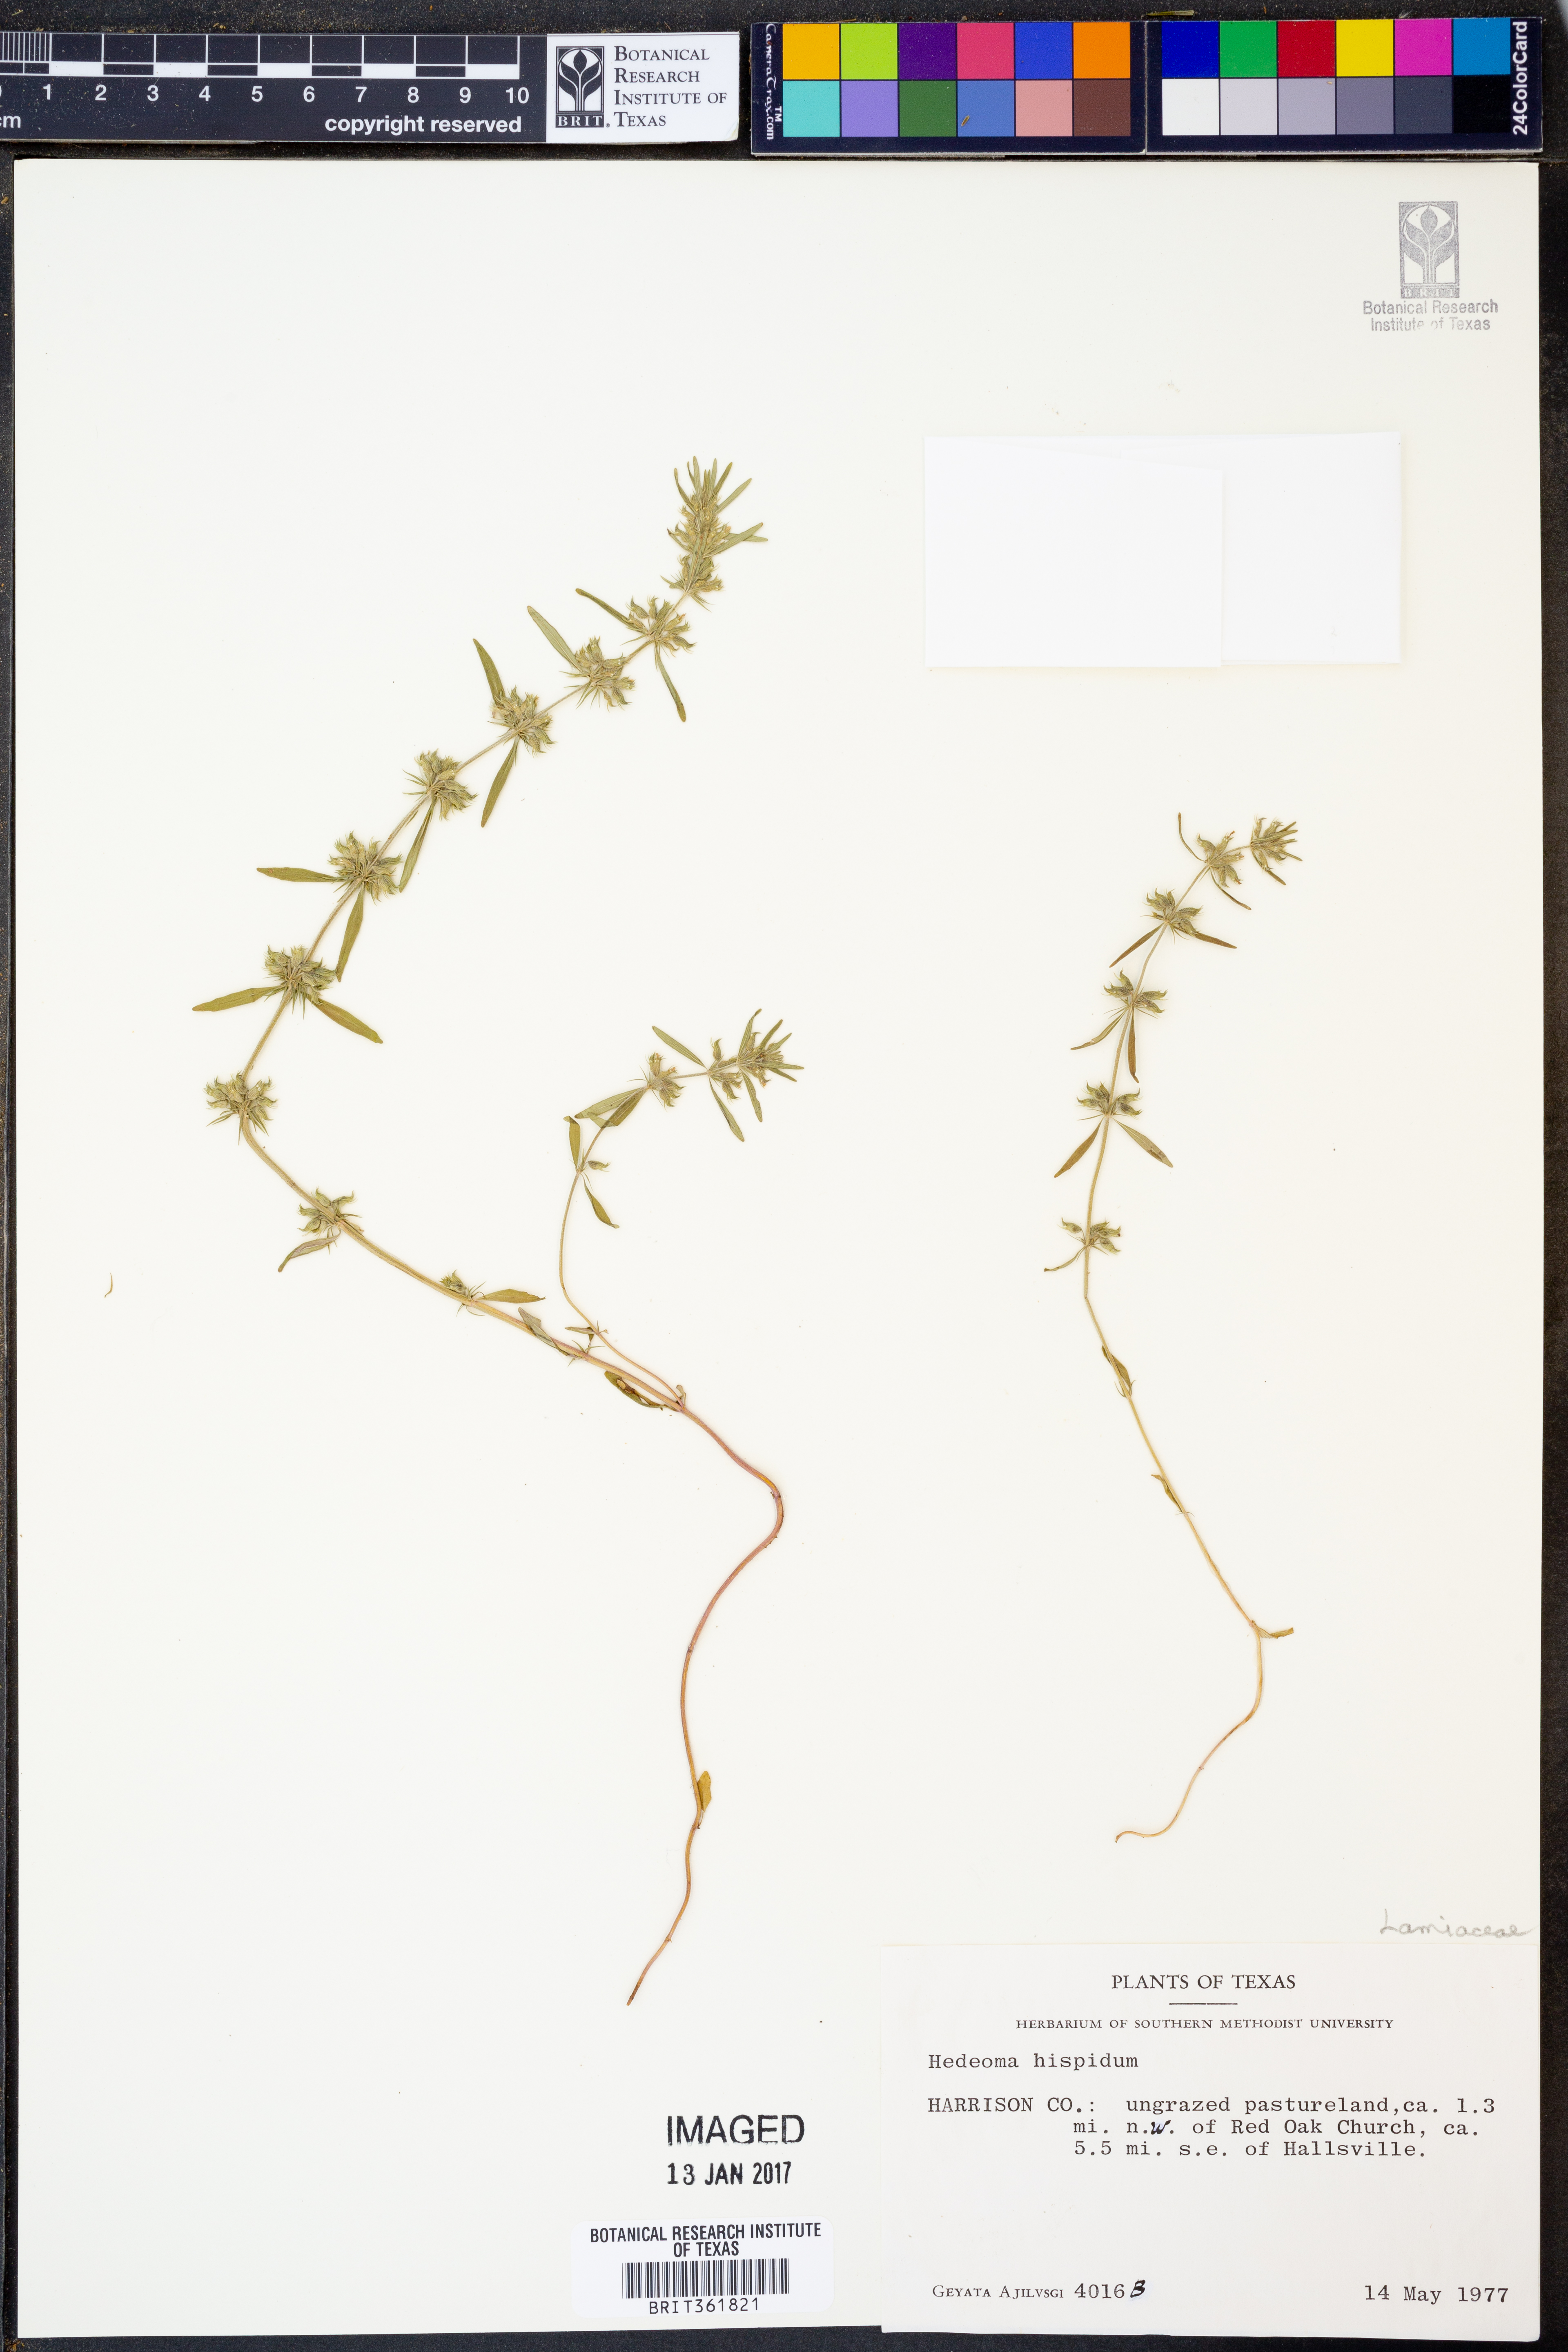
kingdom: Plantae
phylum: Tracheophyta
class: Magnoliopsida
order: Lamiales
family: Lamiaceae
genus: Hedeoma
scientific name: Hedeoma hispida
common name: Mock pennyroyal
